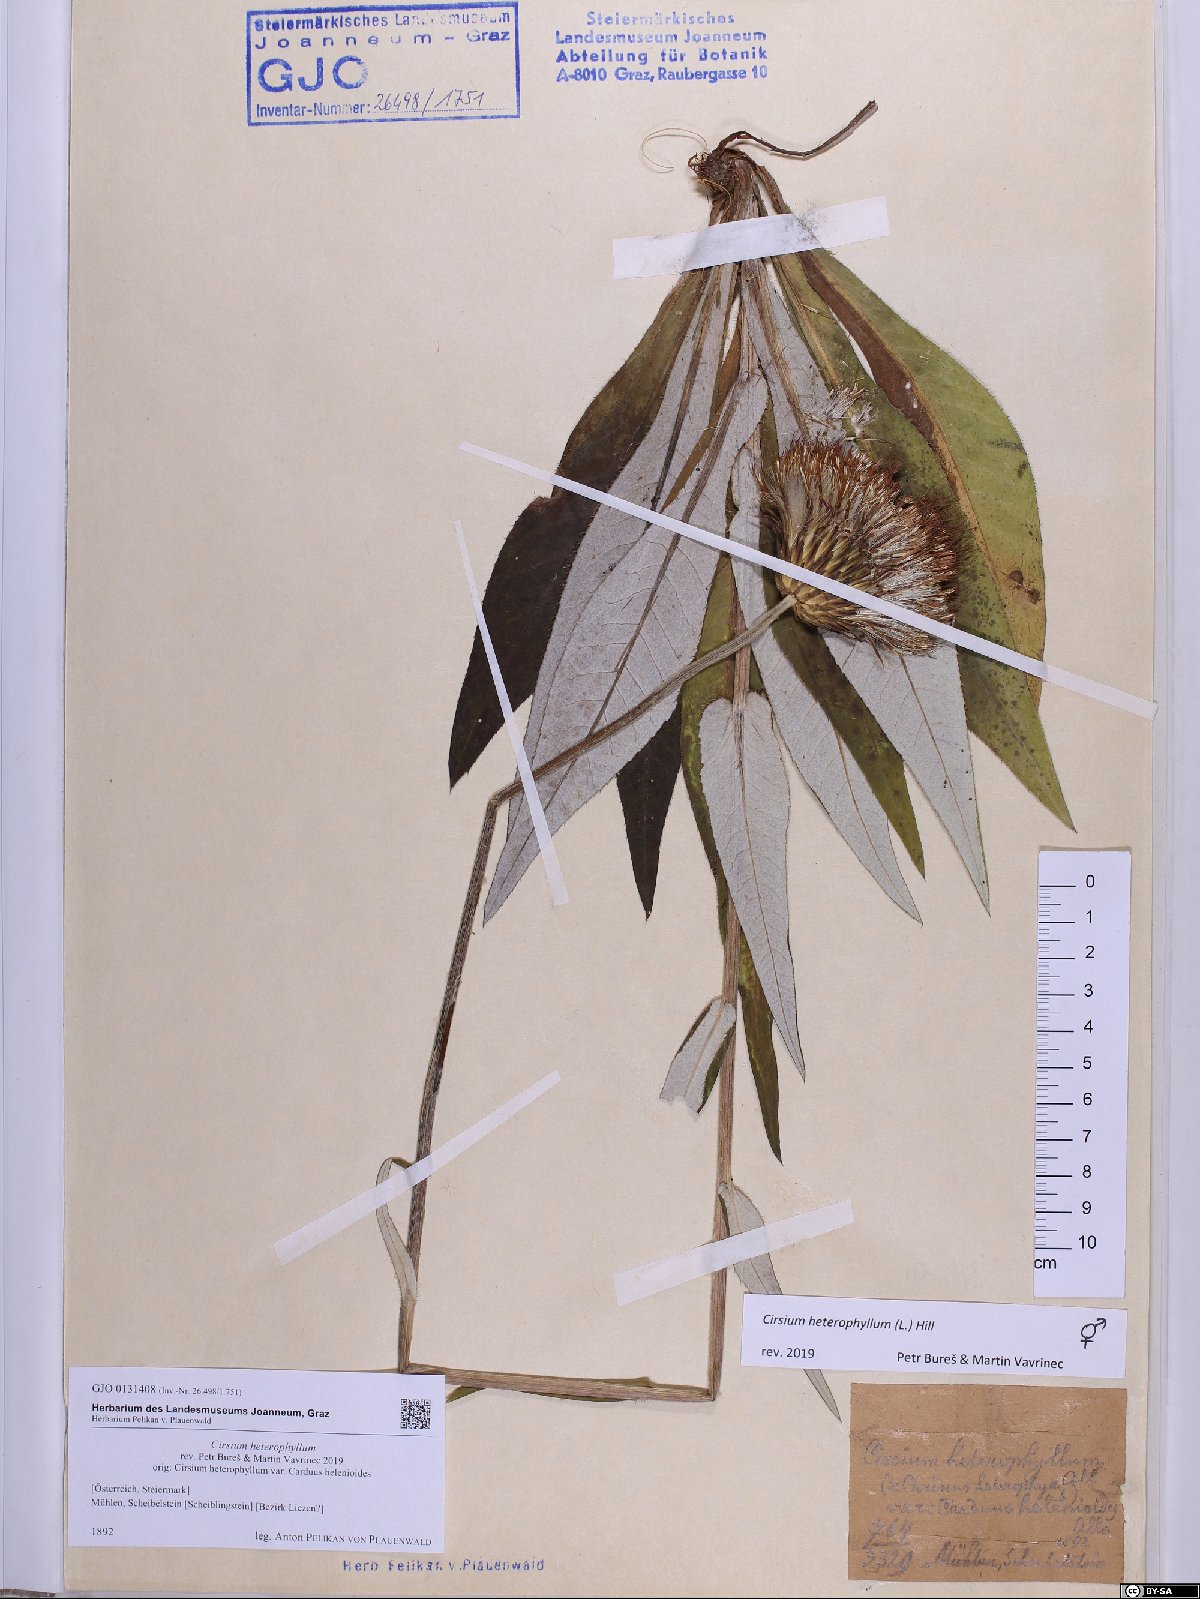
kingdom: Plantae
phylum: Tracheophyta
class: Magnoliopsida
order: Asterales
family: Asteraceae
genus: Cirsium
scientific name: Cirsium heterophyllum
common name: Melancholy thistle
